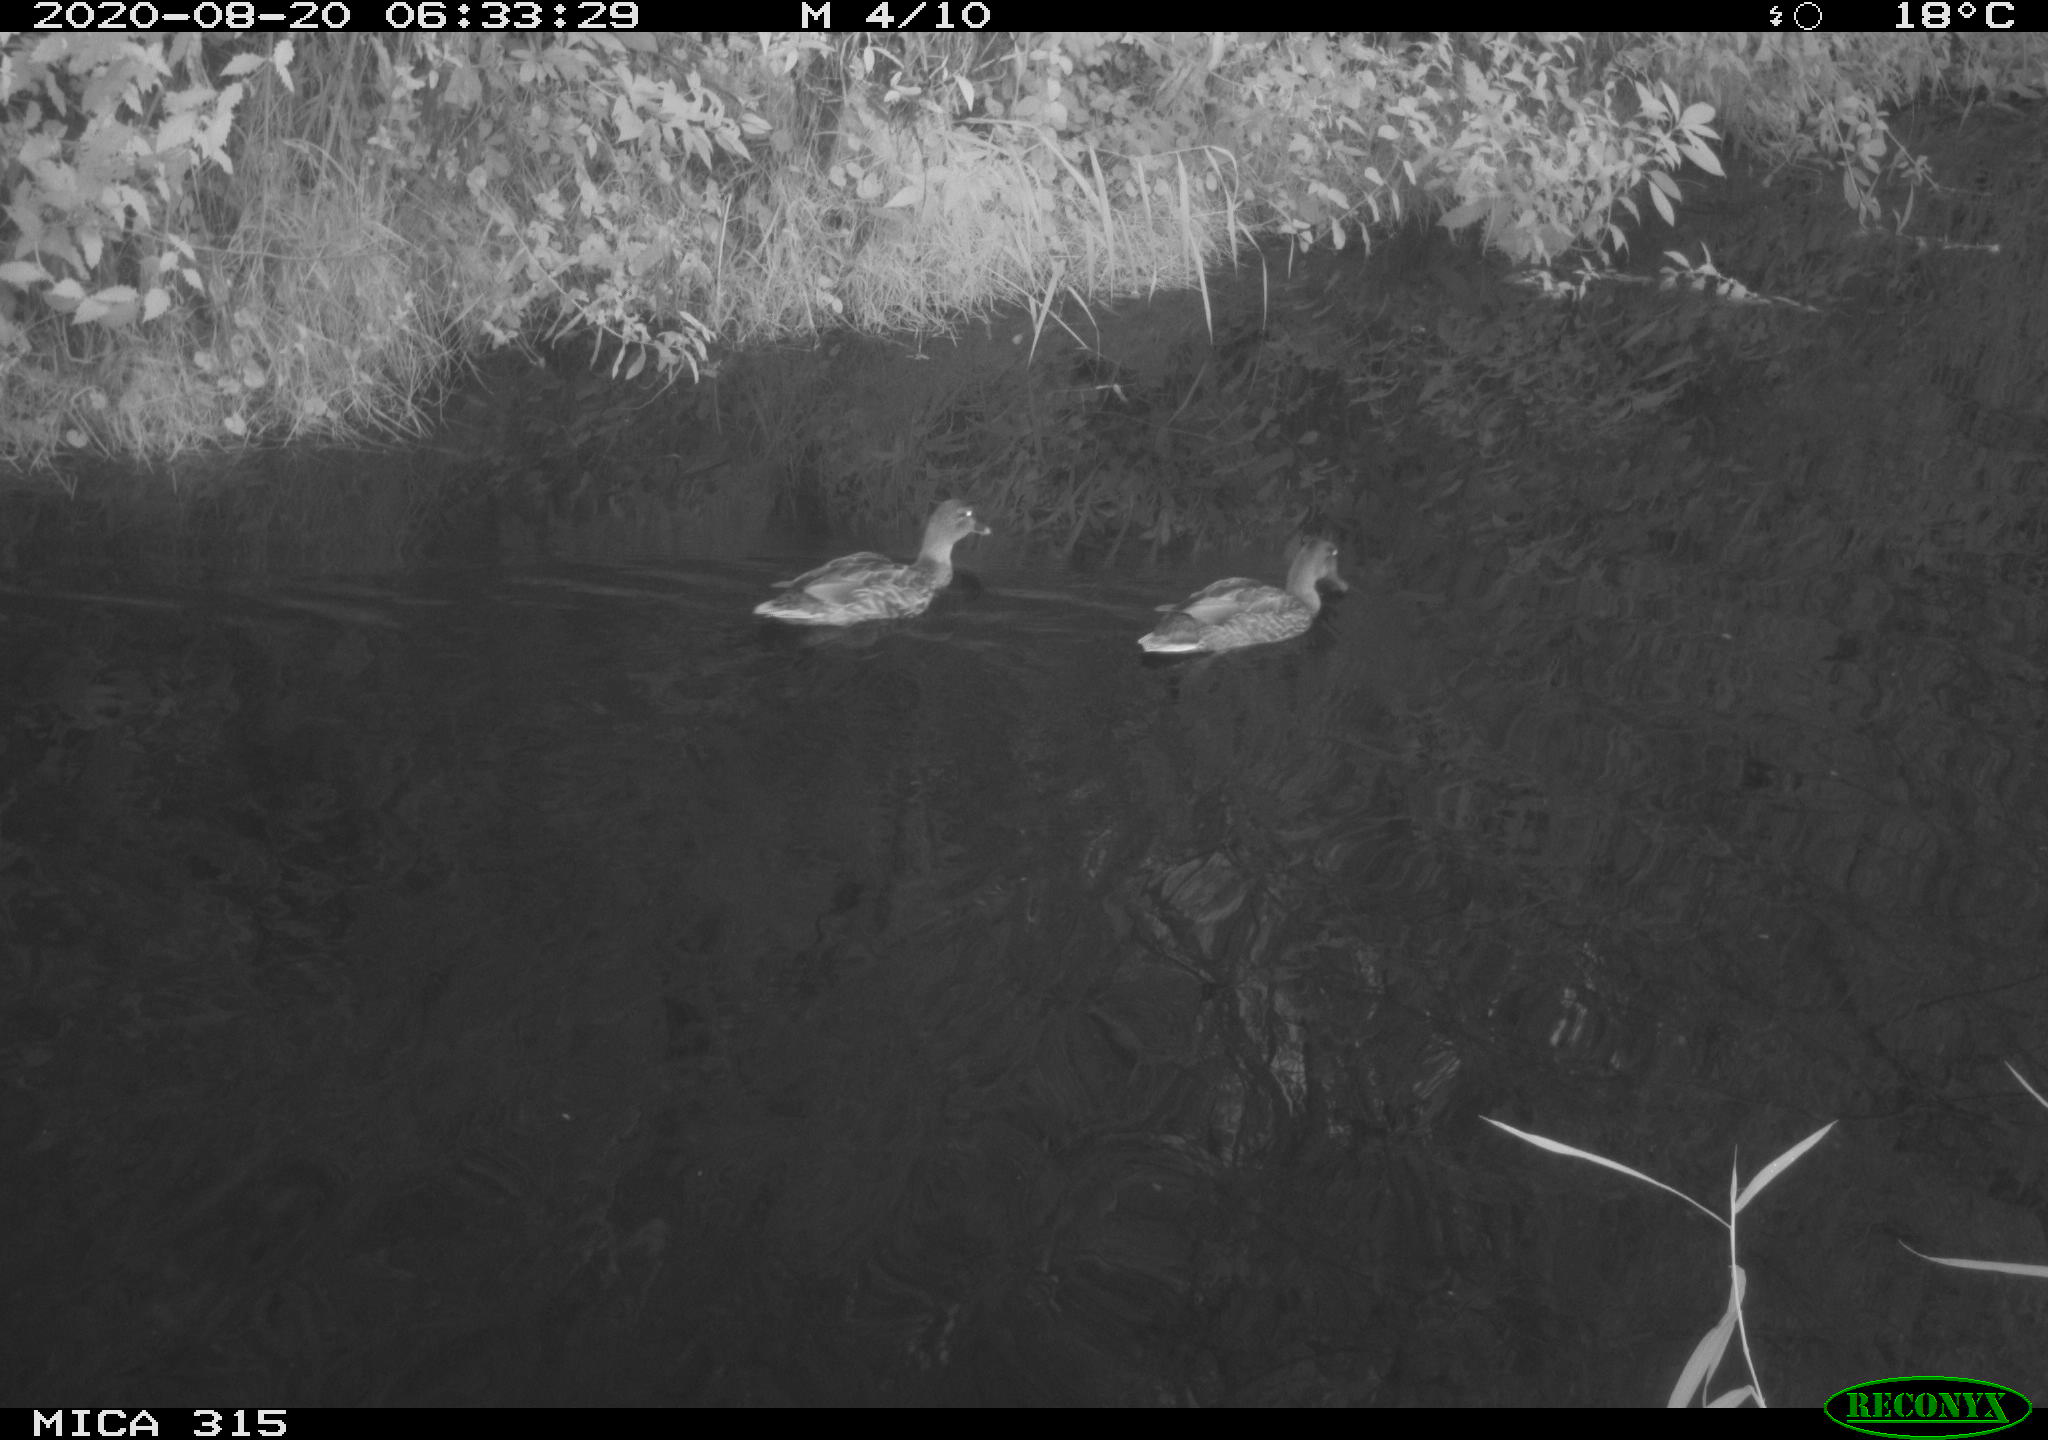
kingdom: Animalia
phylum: Chordata
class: Aves
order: Anseriformes
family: Anatidae
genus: Anas
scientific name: Anas platyrhynchos
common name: Mallard
